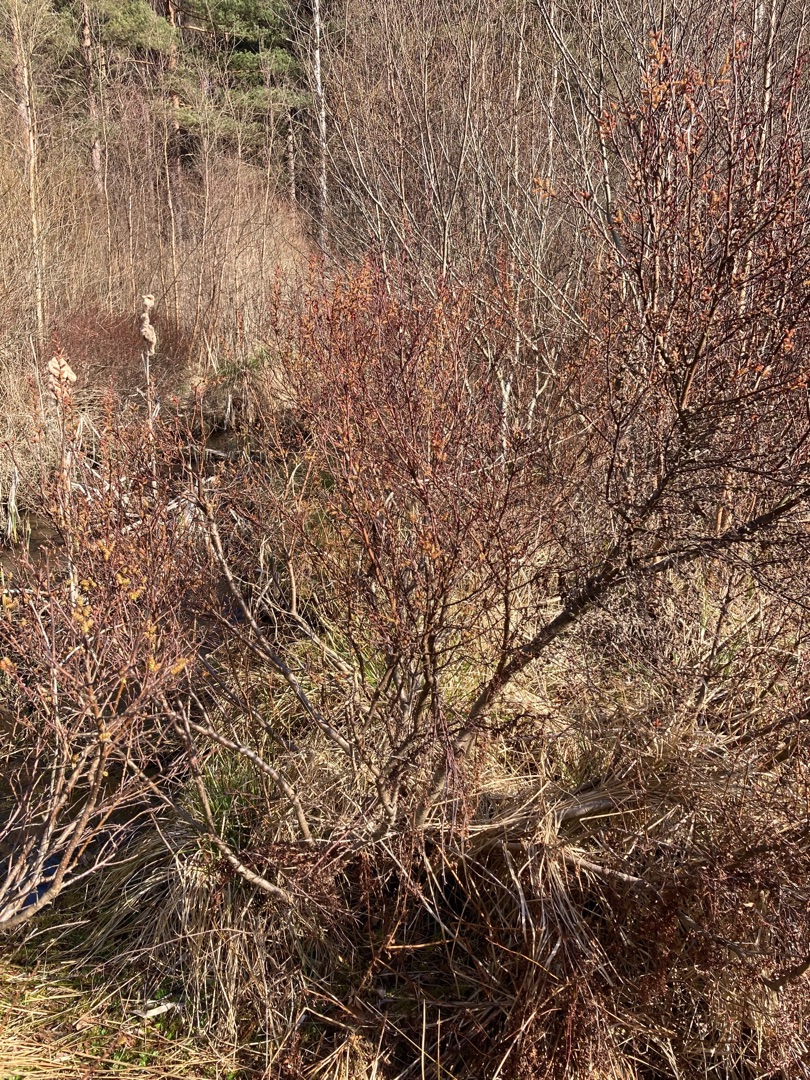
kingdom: Plantae
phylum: Tracheophyta
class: Magnoliopsida
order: Fagales
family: Myricaceae
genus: Myrica
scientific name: Myrica gale
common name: Pors
